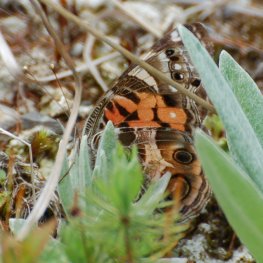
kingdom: Animalia
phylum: Arthropoda
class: Insecta
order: Lepidoptera
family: Nymphalidae
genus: Vanessa
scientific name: Vanessa virginiensis
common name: American Lady
